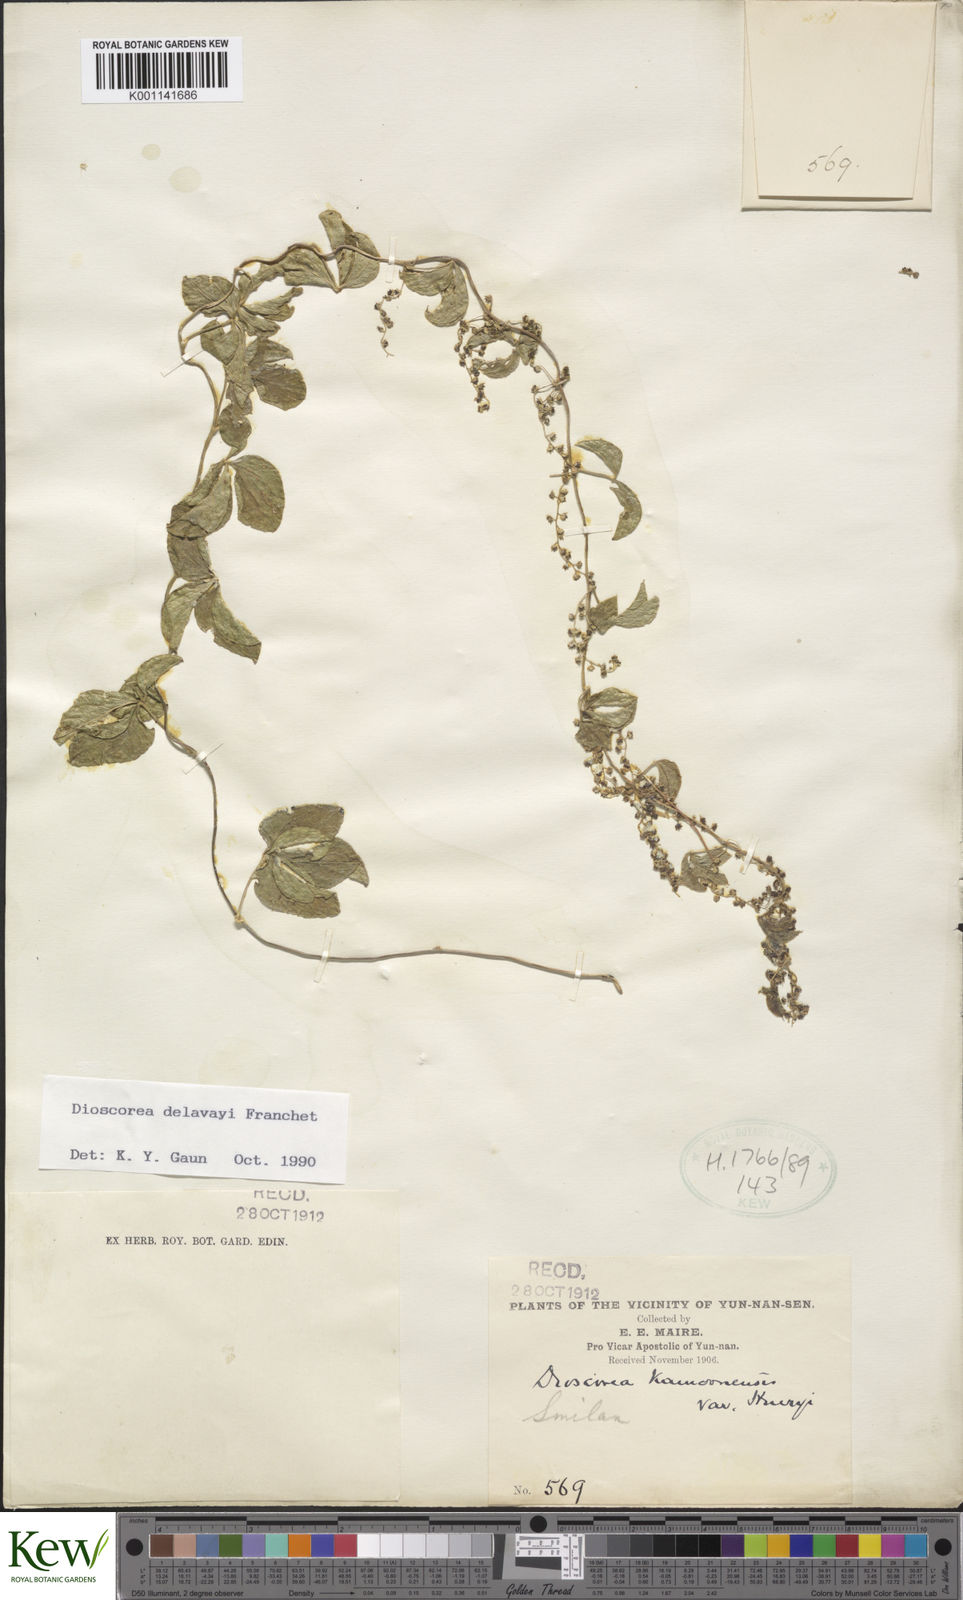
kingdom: Plantae
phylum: Tracheophyta
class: Liliopsida
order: Dioscoreales
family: Dioscoreaceae
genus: Dioscorea
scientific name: Dioscorea kamoonensis
